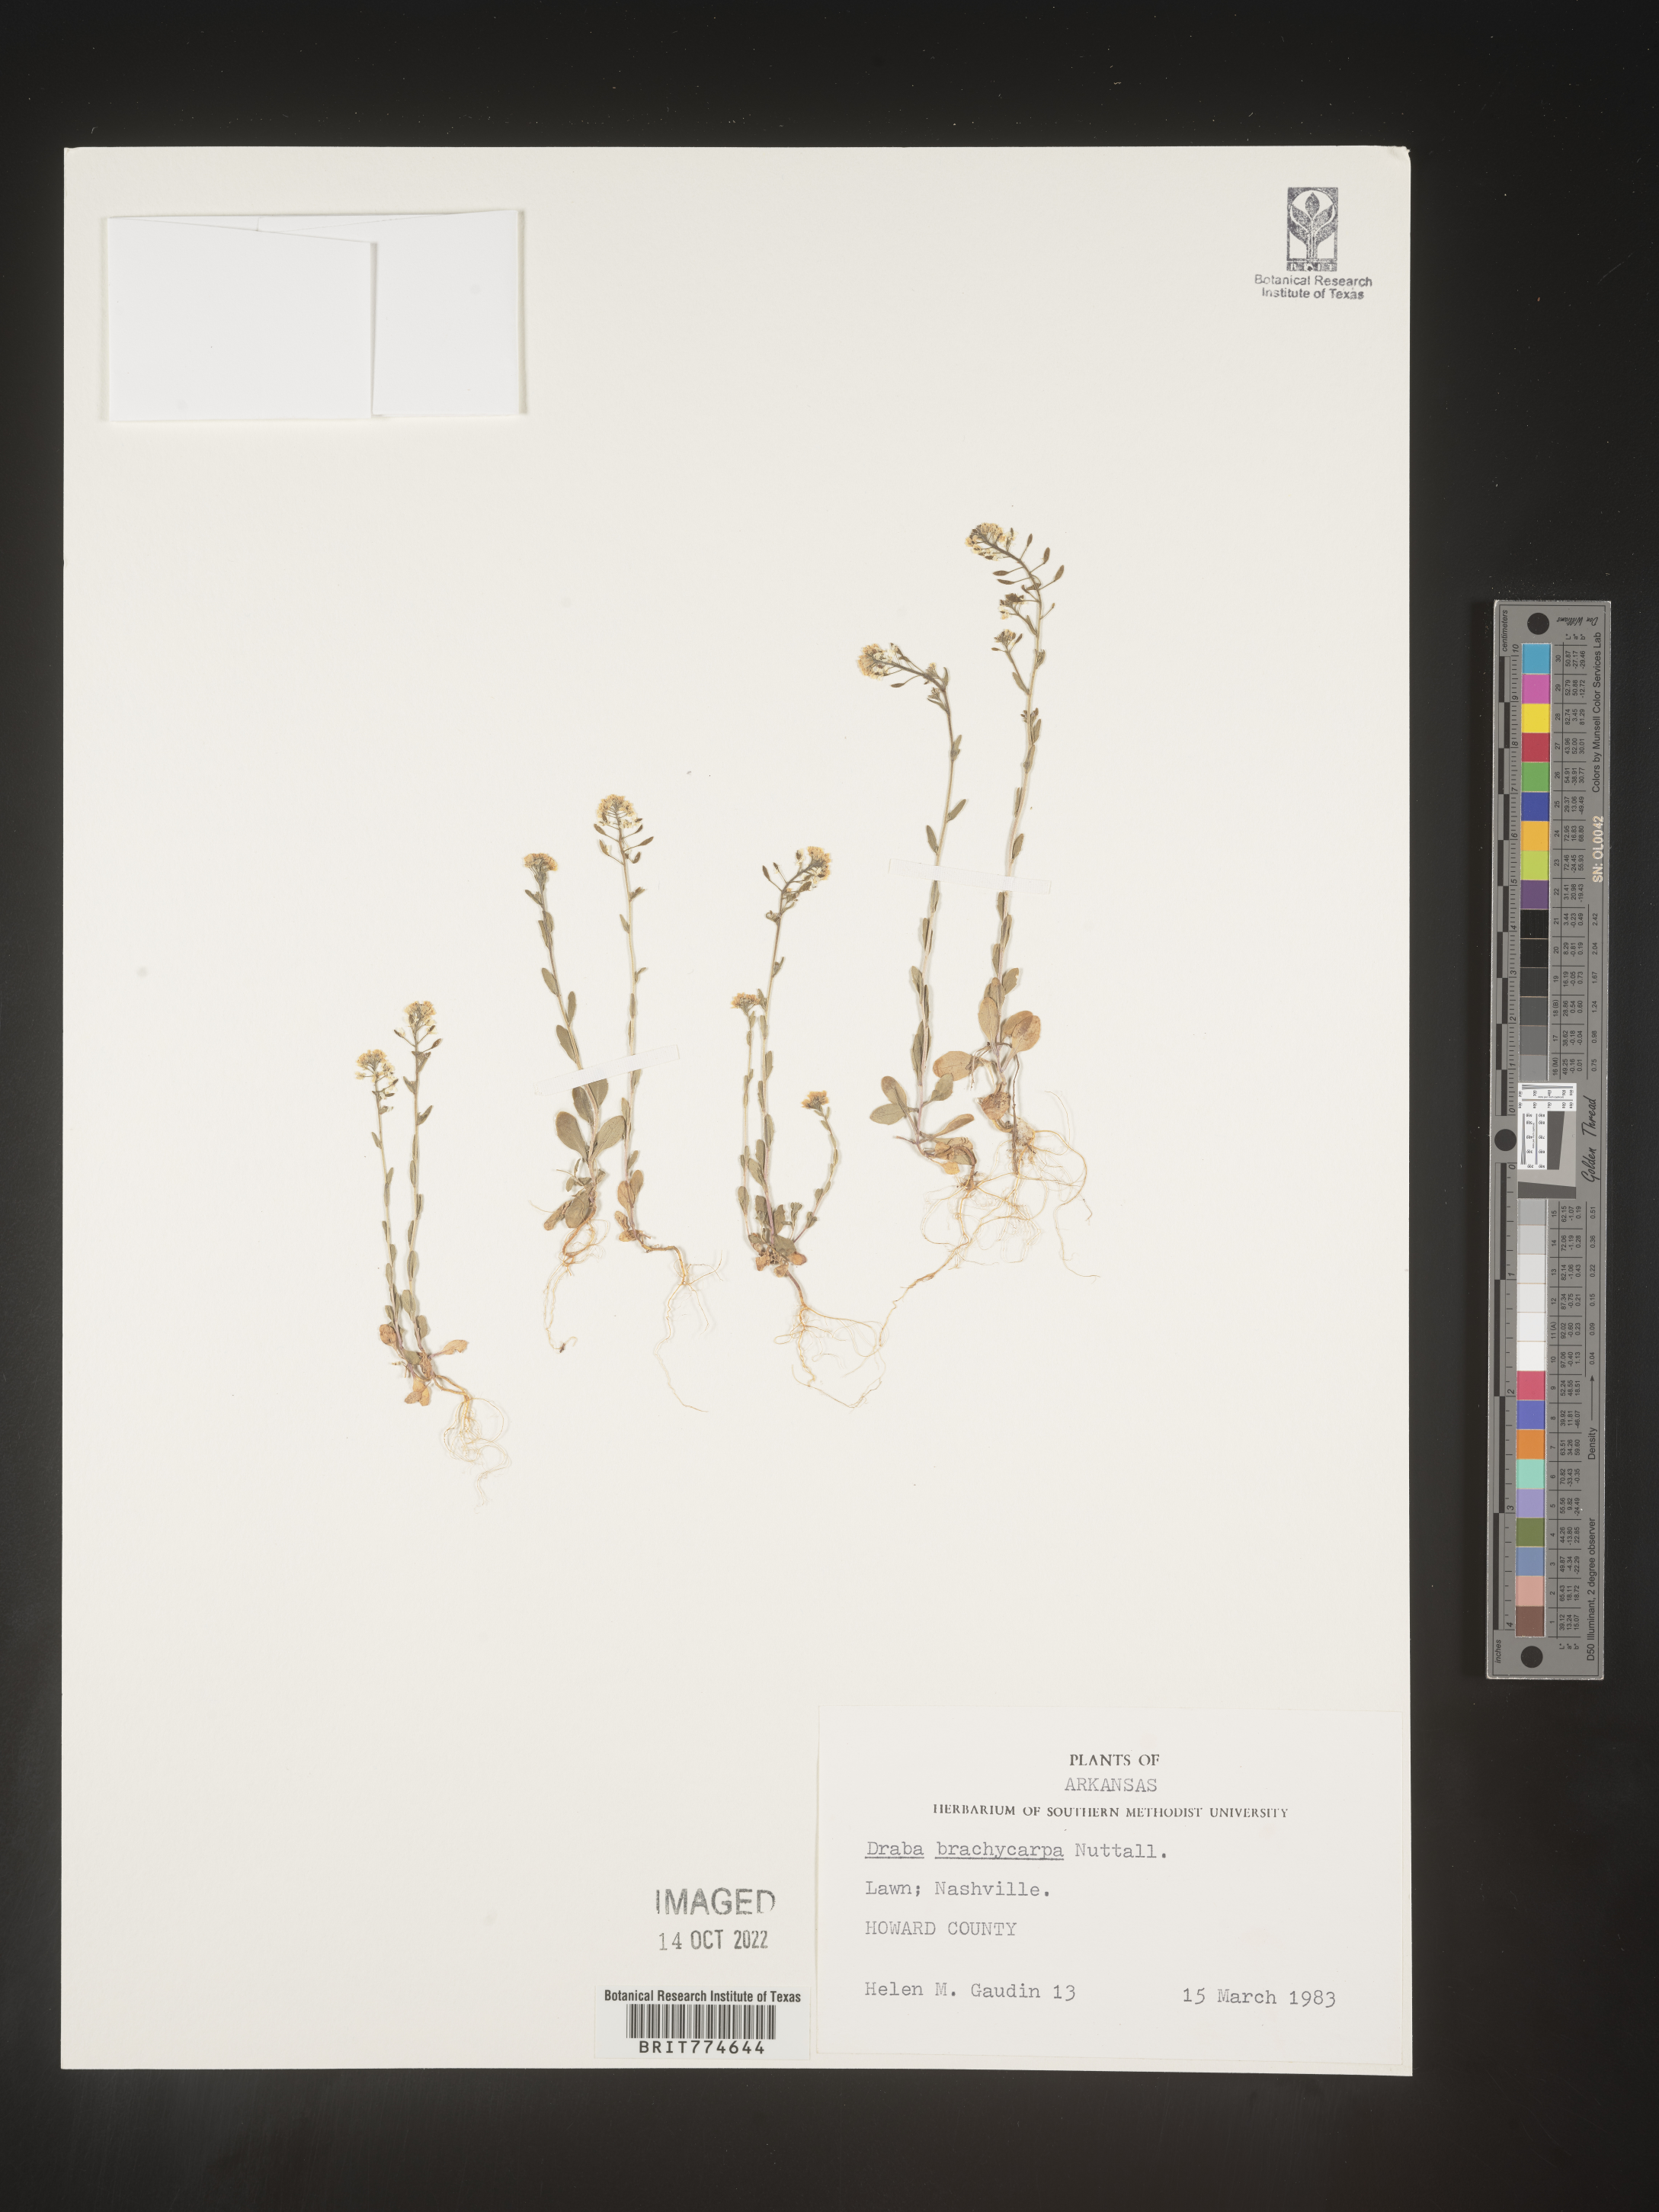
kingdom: Plantae
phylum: Tracheophyta
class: Magnoliopsida
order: Brassicales
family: Brassicaceae
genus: Abdra
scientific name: Abdra brachycarpa
